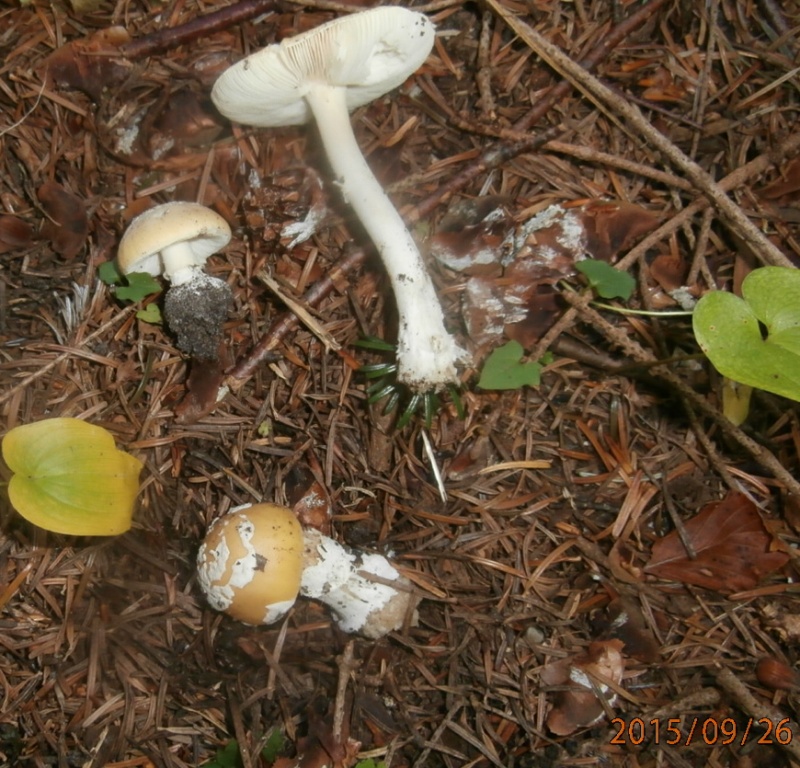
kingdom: Fungi
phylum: Basidiomycota
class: Agaricomycetes
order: Agaricales
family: Amanitaceae
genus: Amanita
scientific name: Amanita gemmata
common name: okkergul fluesvamp
